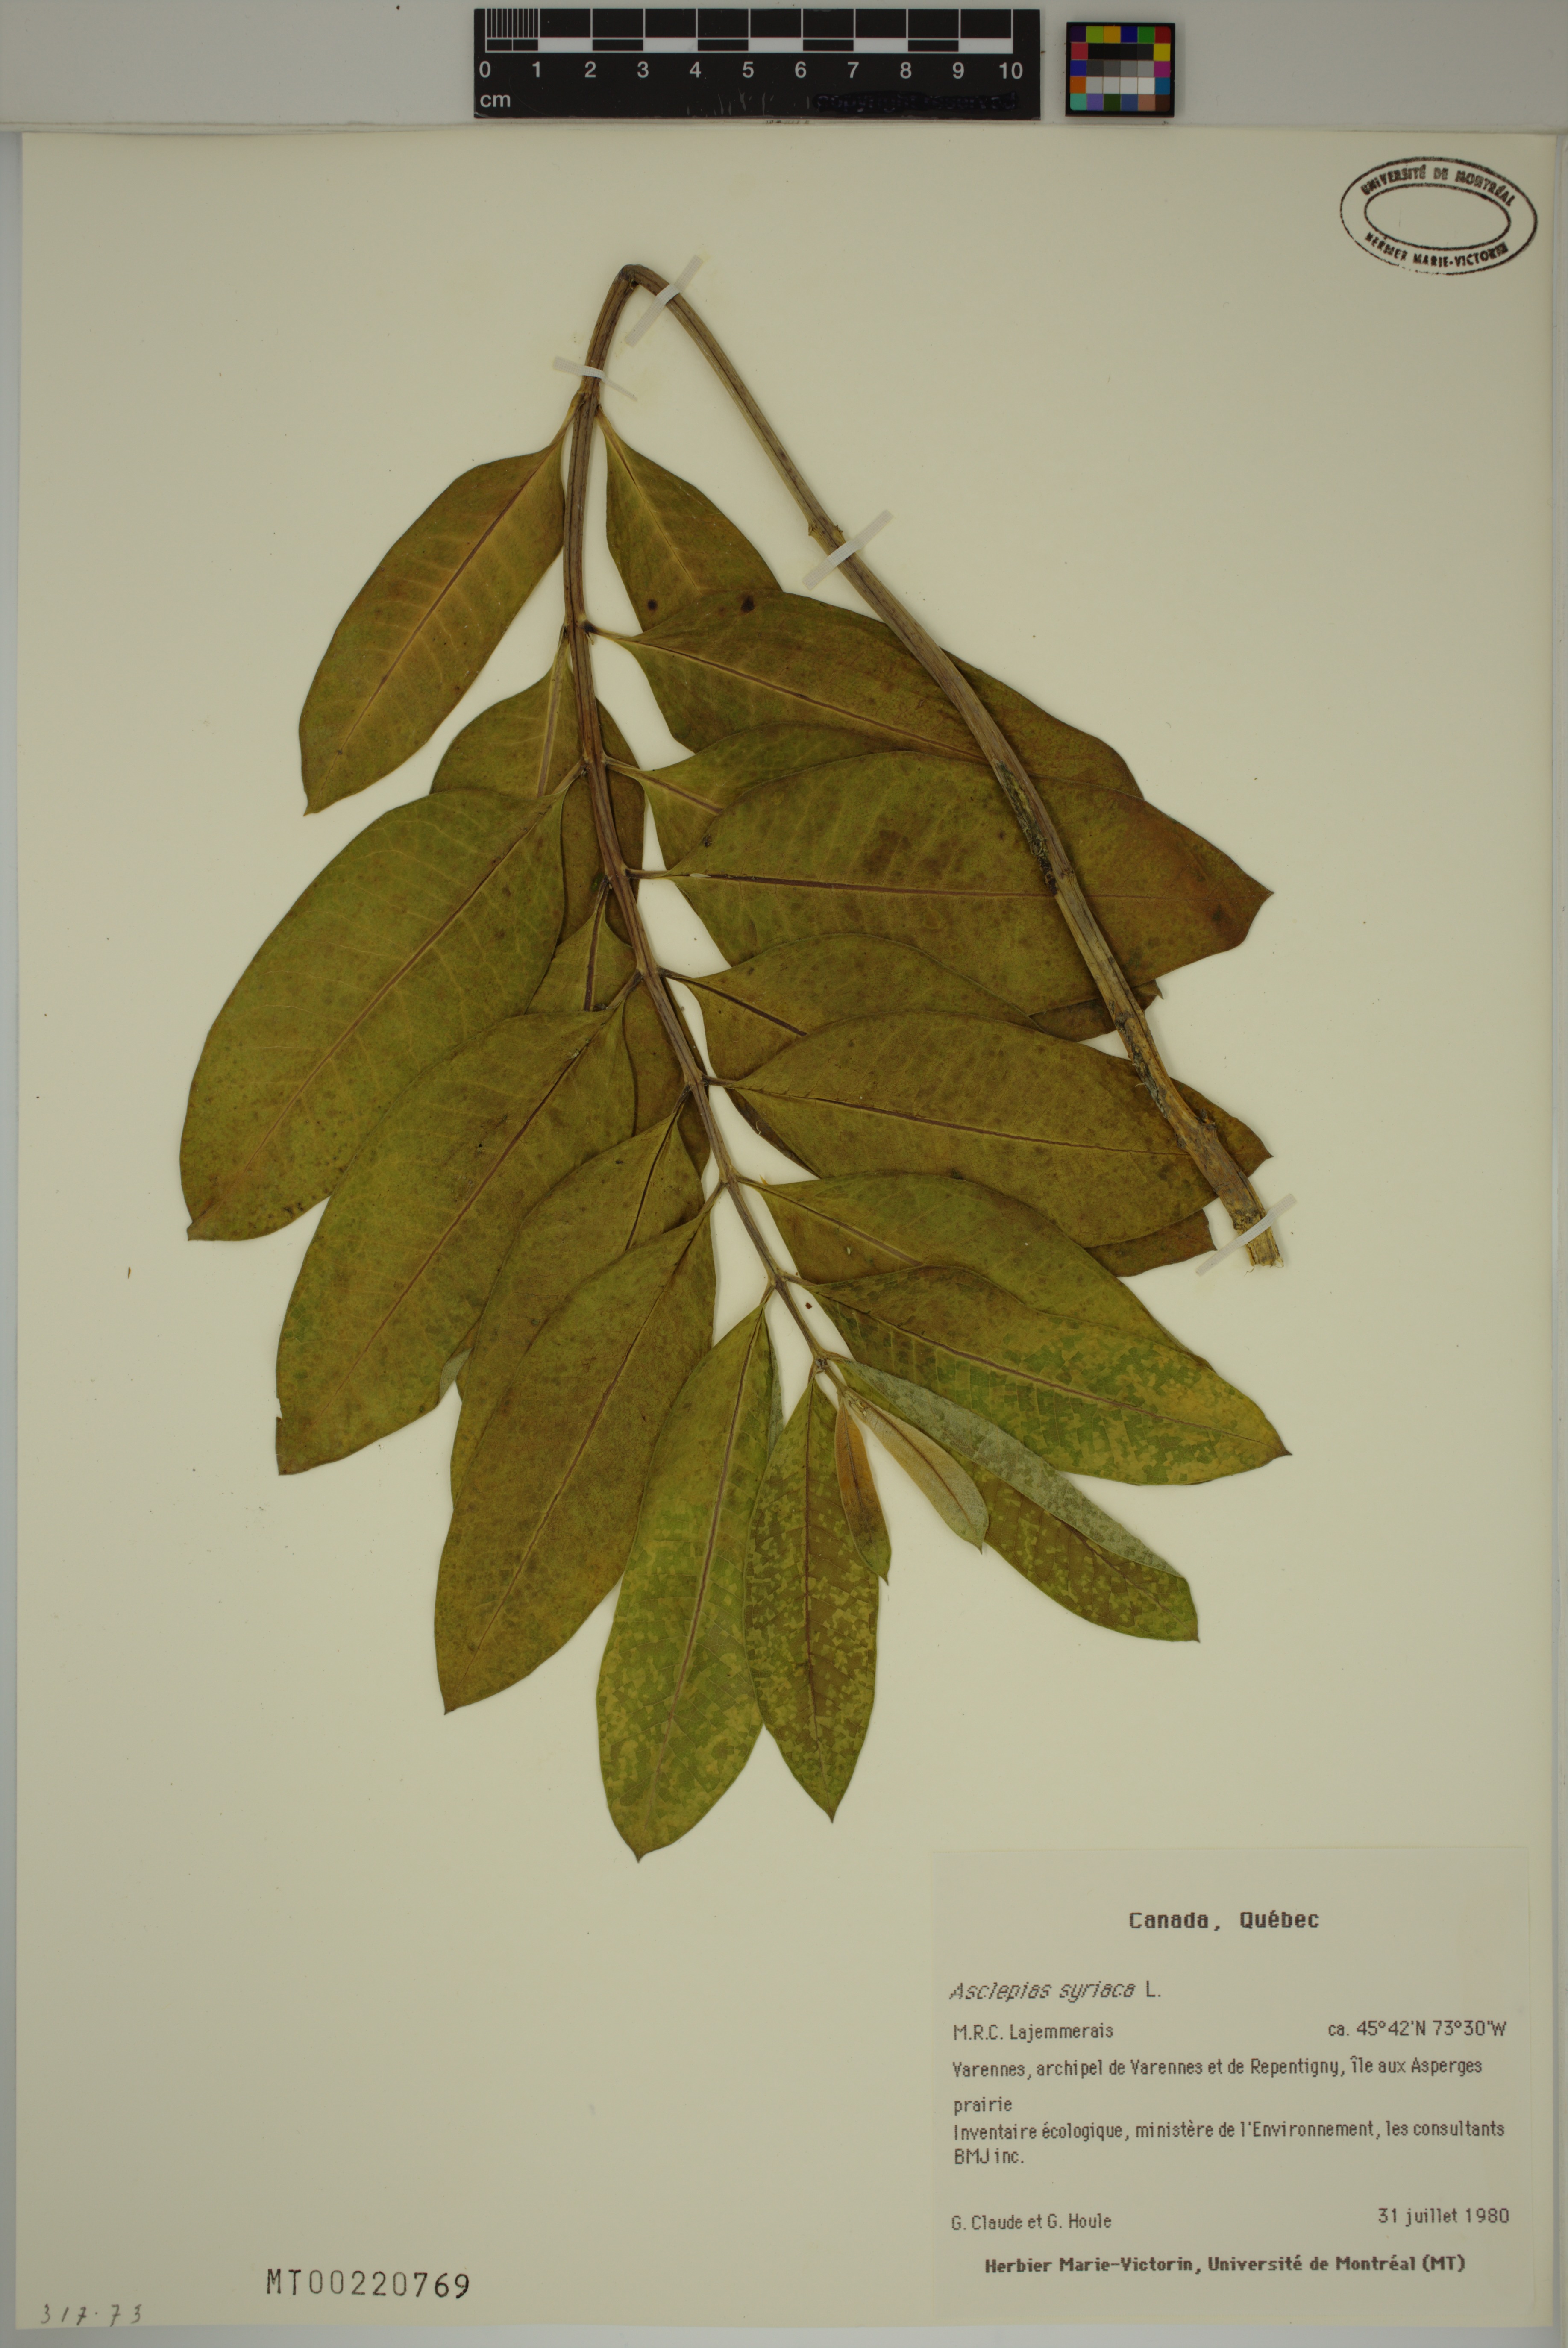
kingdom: Plantae
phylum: Tracheophyta
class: Magnoliopsida
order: Gentianales
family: Apocynaceae
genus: Asclepias
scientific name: Asclepias syriaca
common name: Common milkweed
